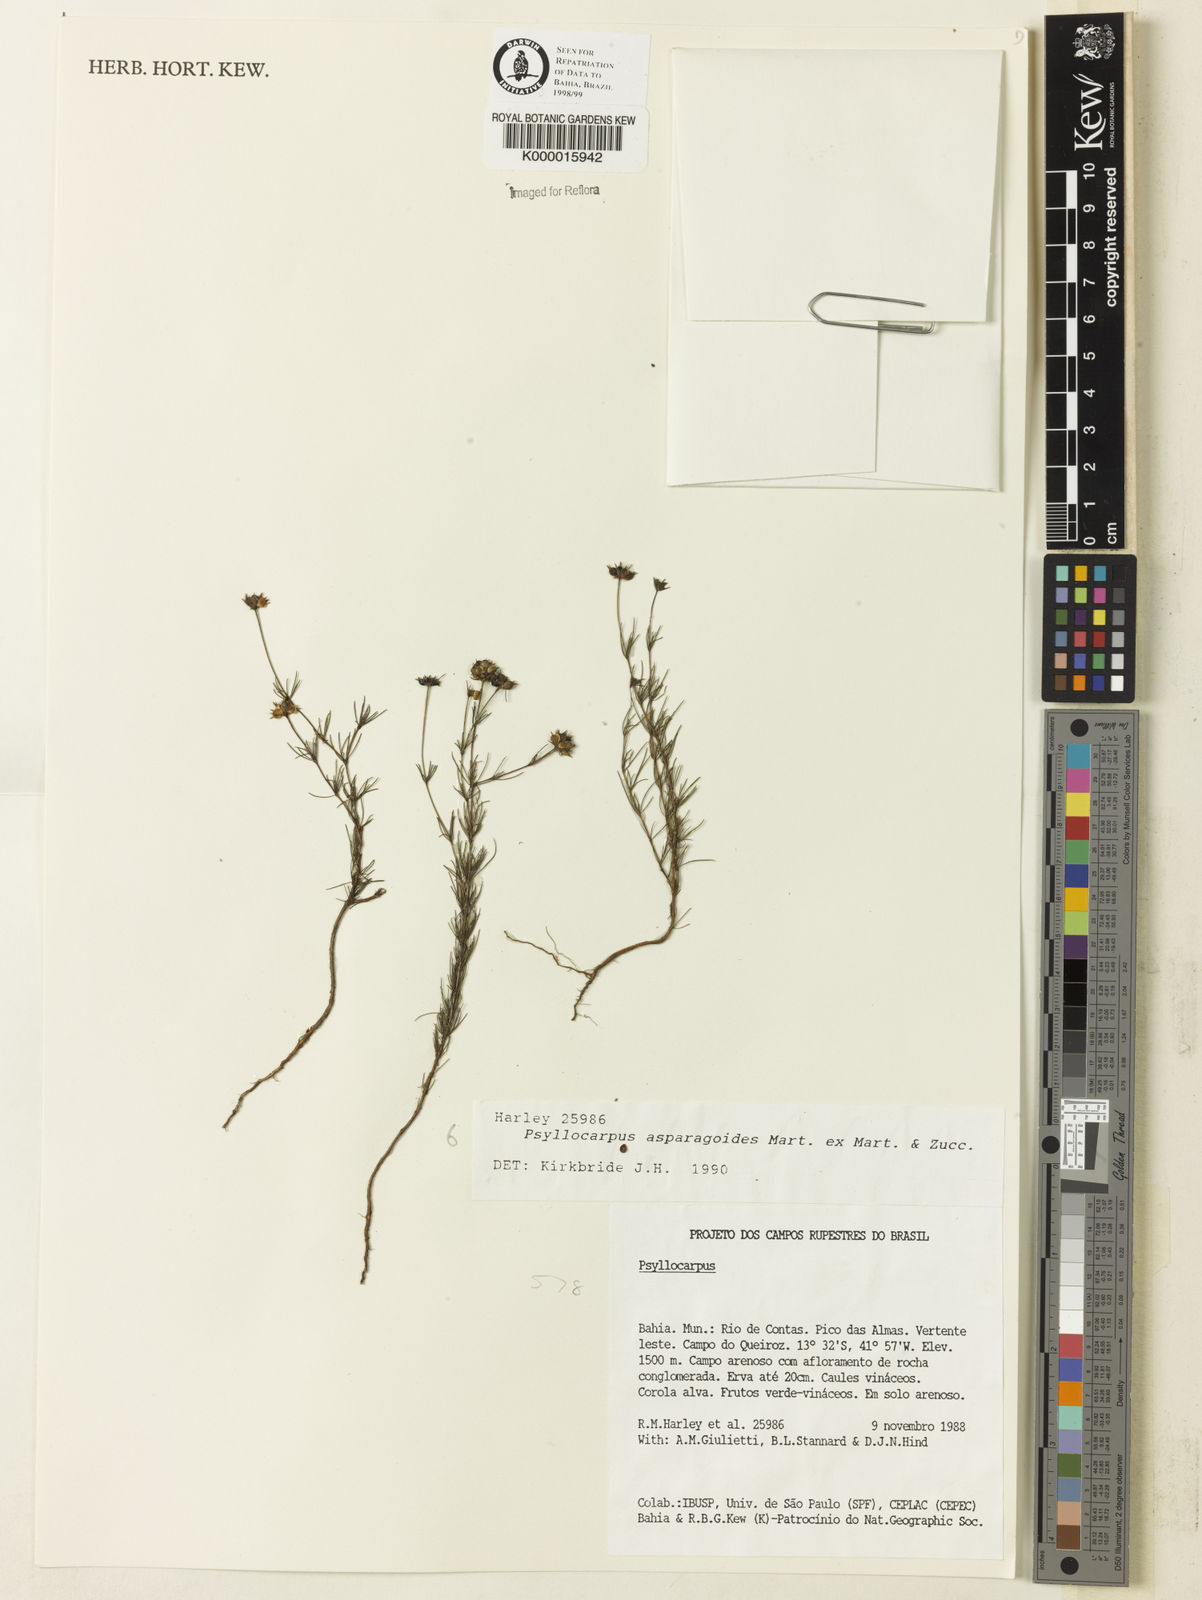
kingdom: Plantae
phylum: Tracheophyta
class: Magnoliopsida
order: Gentianales
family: Rubiaceae
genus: Psyllocarpus
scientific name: Psyllocarpus asparagoides
